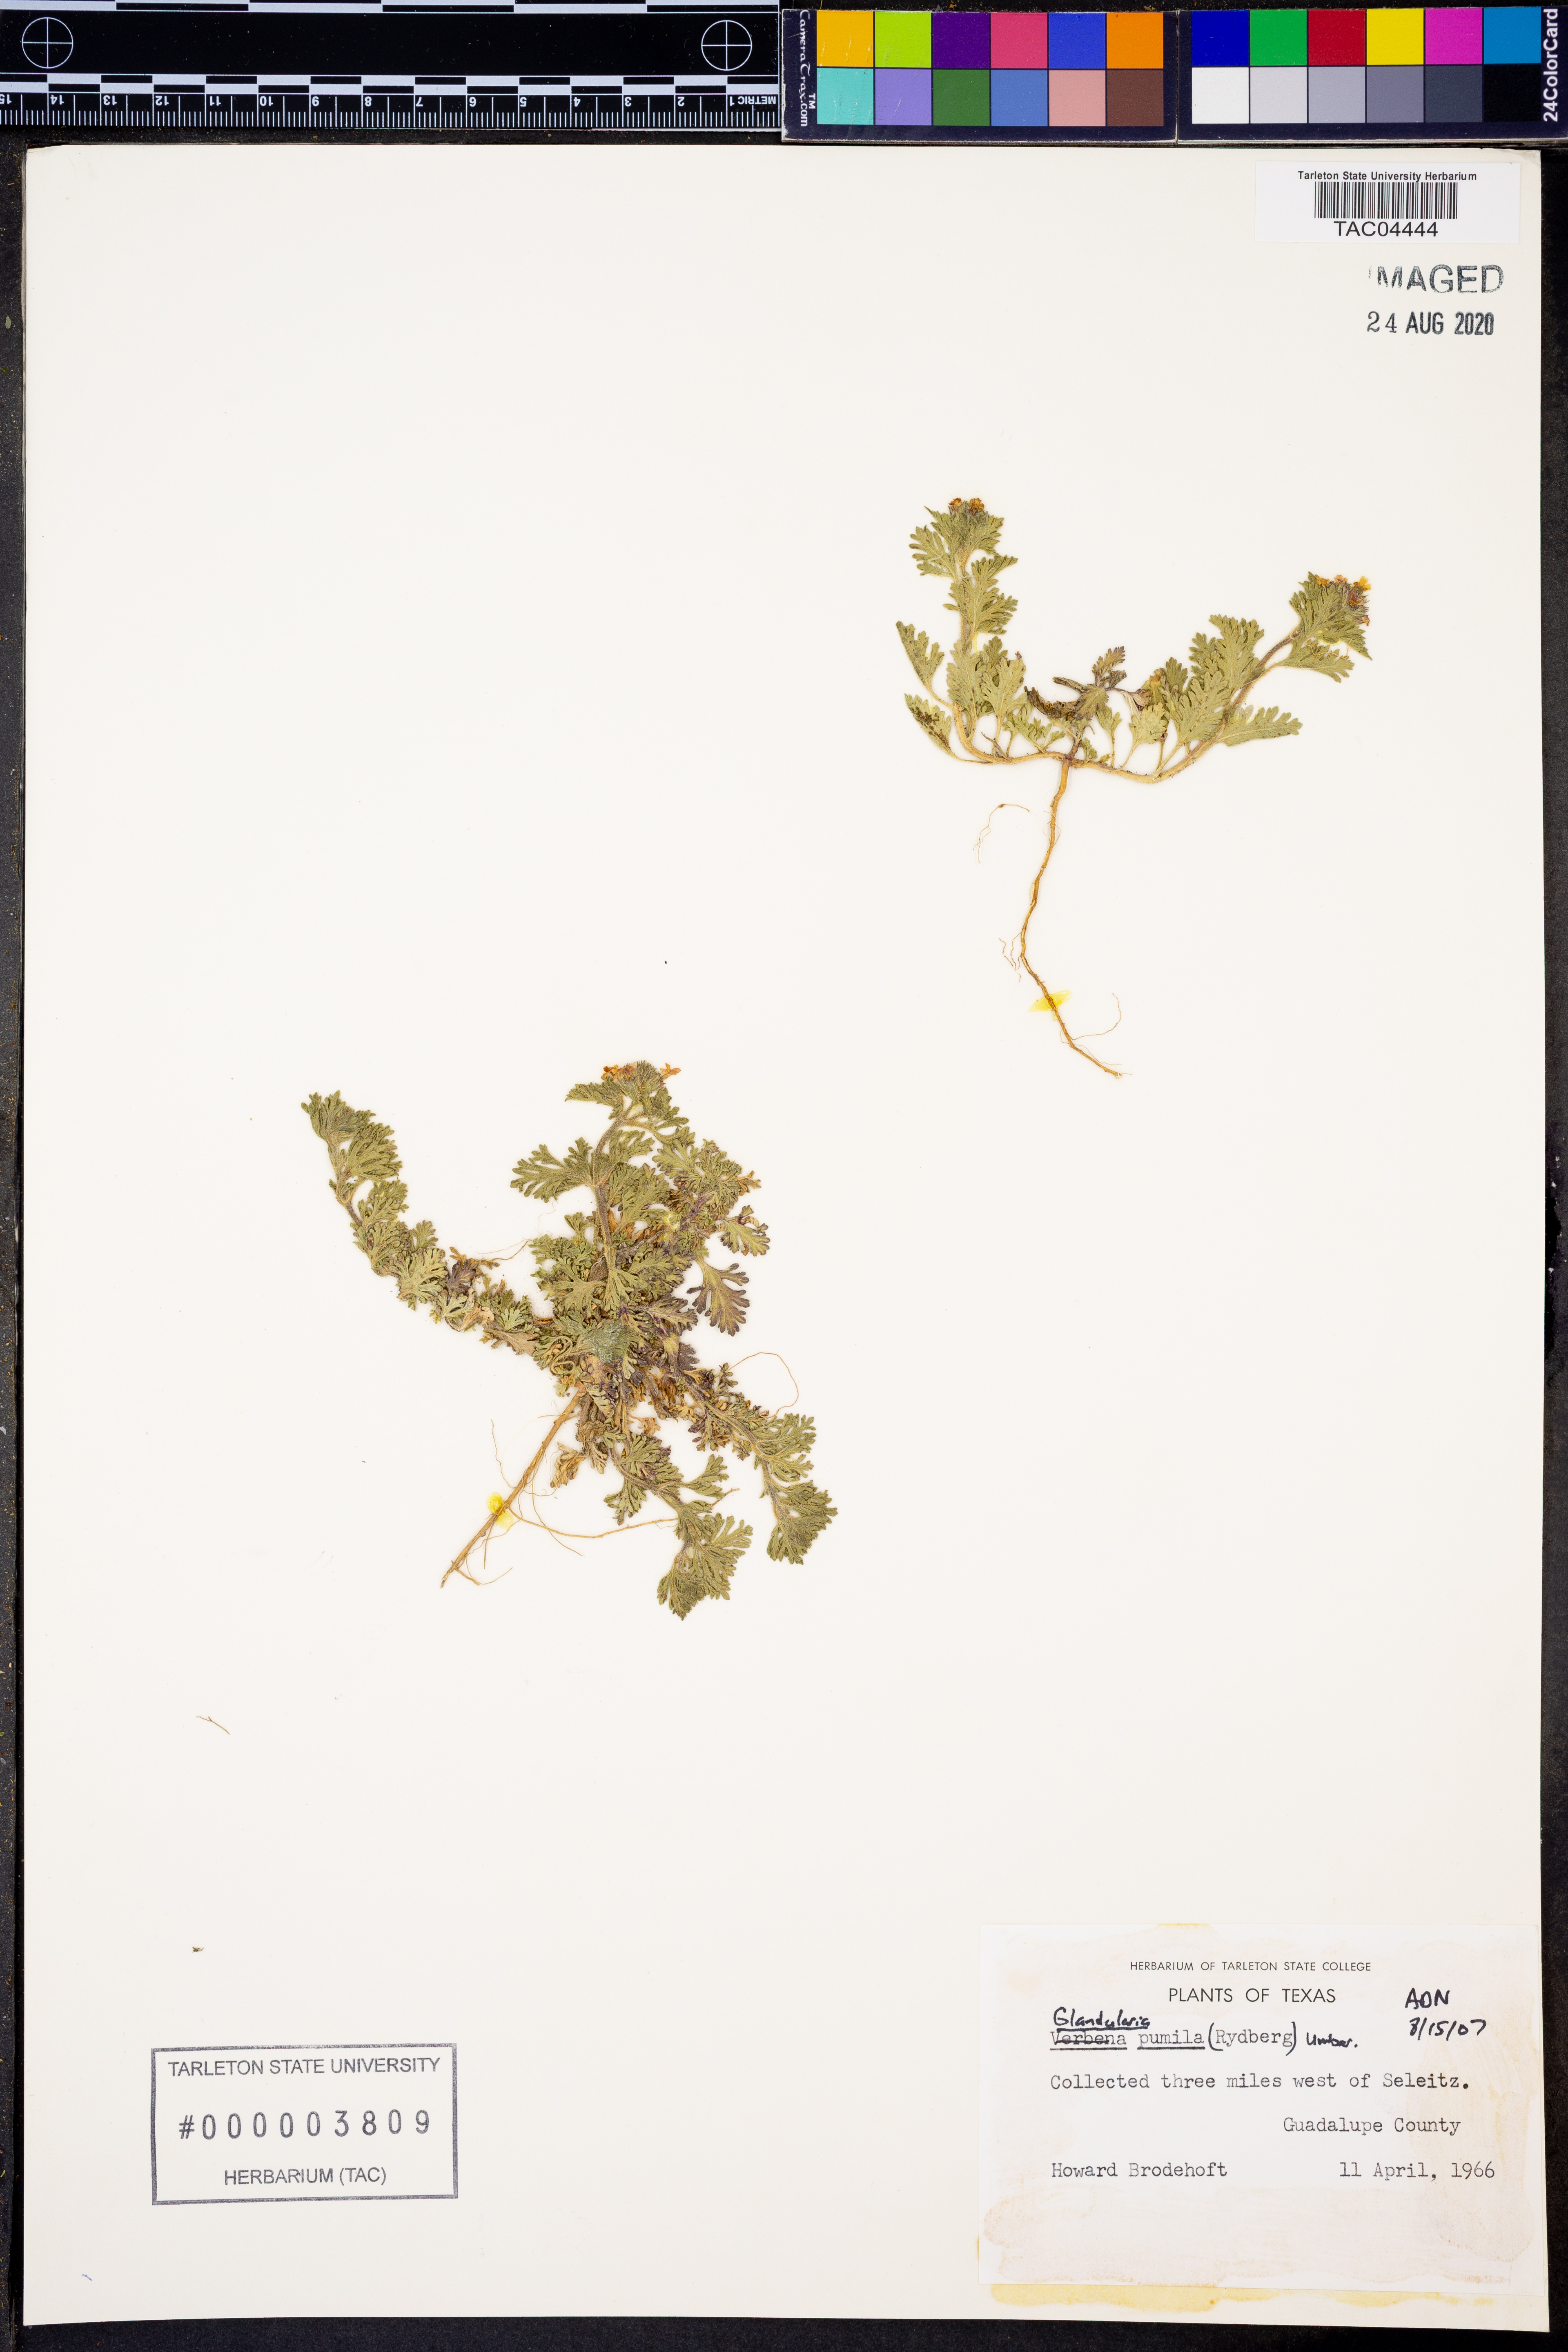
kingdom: Plantae
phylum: Tracheophyta
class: Magnoliopsida
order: Lamiales
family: Verbenaceae
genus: Verbena
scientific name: Verbena pumila
